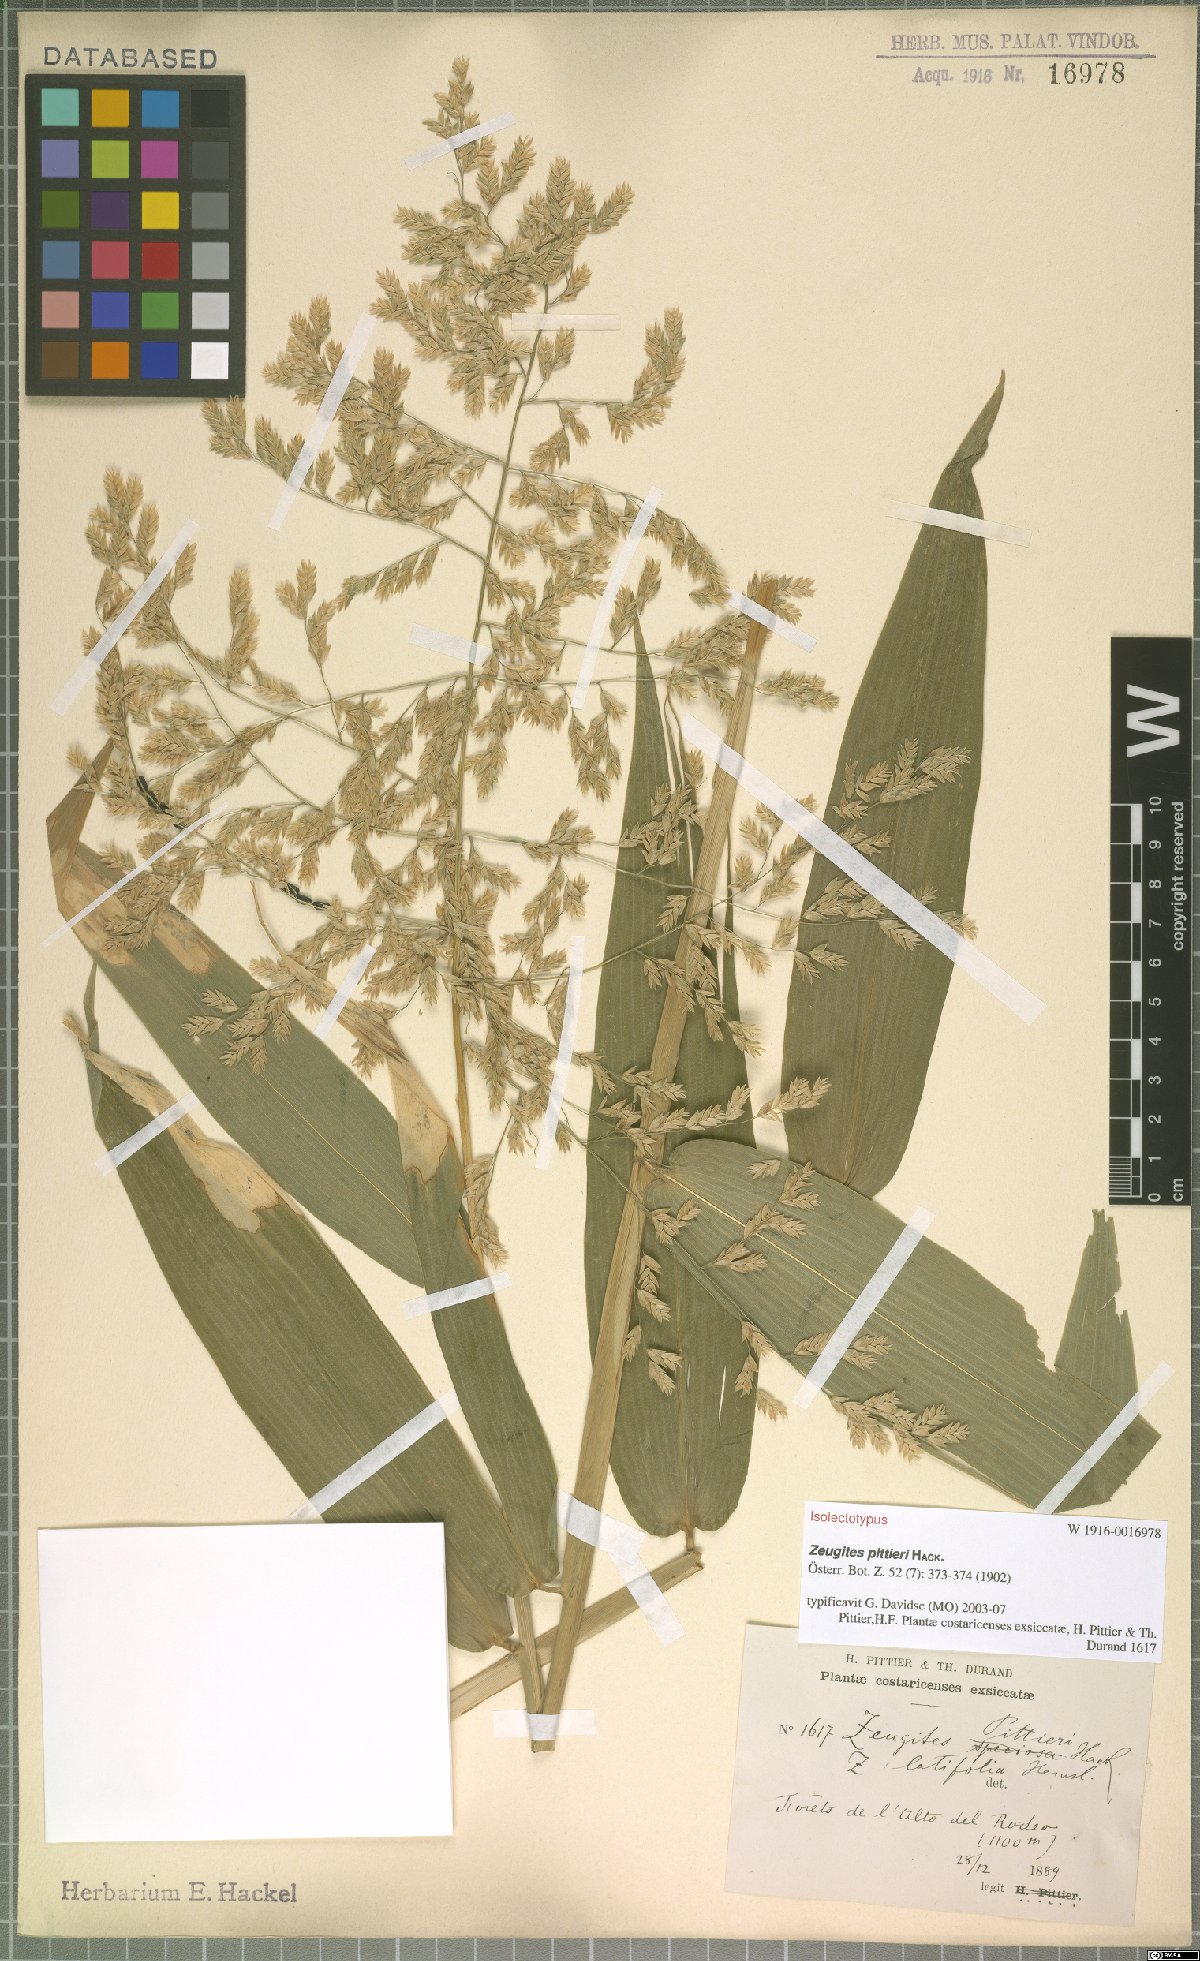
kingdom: Plantae
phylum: Tracheophyta
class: Liliopsida
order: Poales
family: Poaceae
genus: Zeugites
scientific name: Zeugites pittieri
